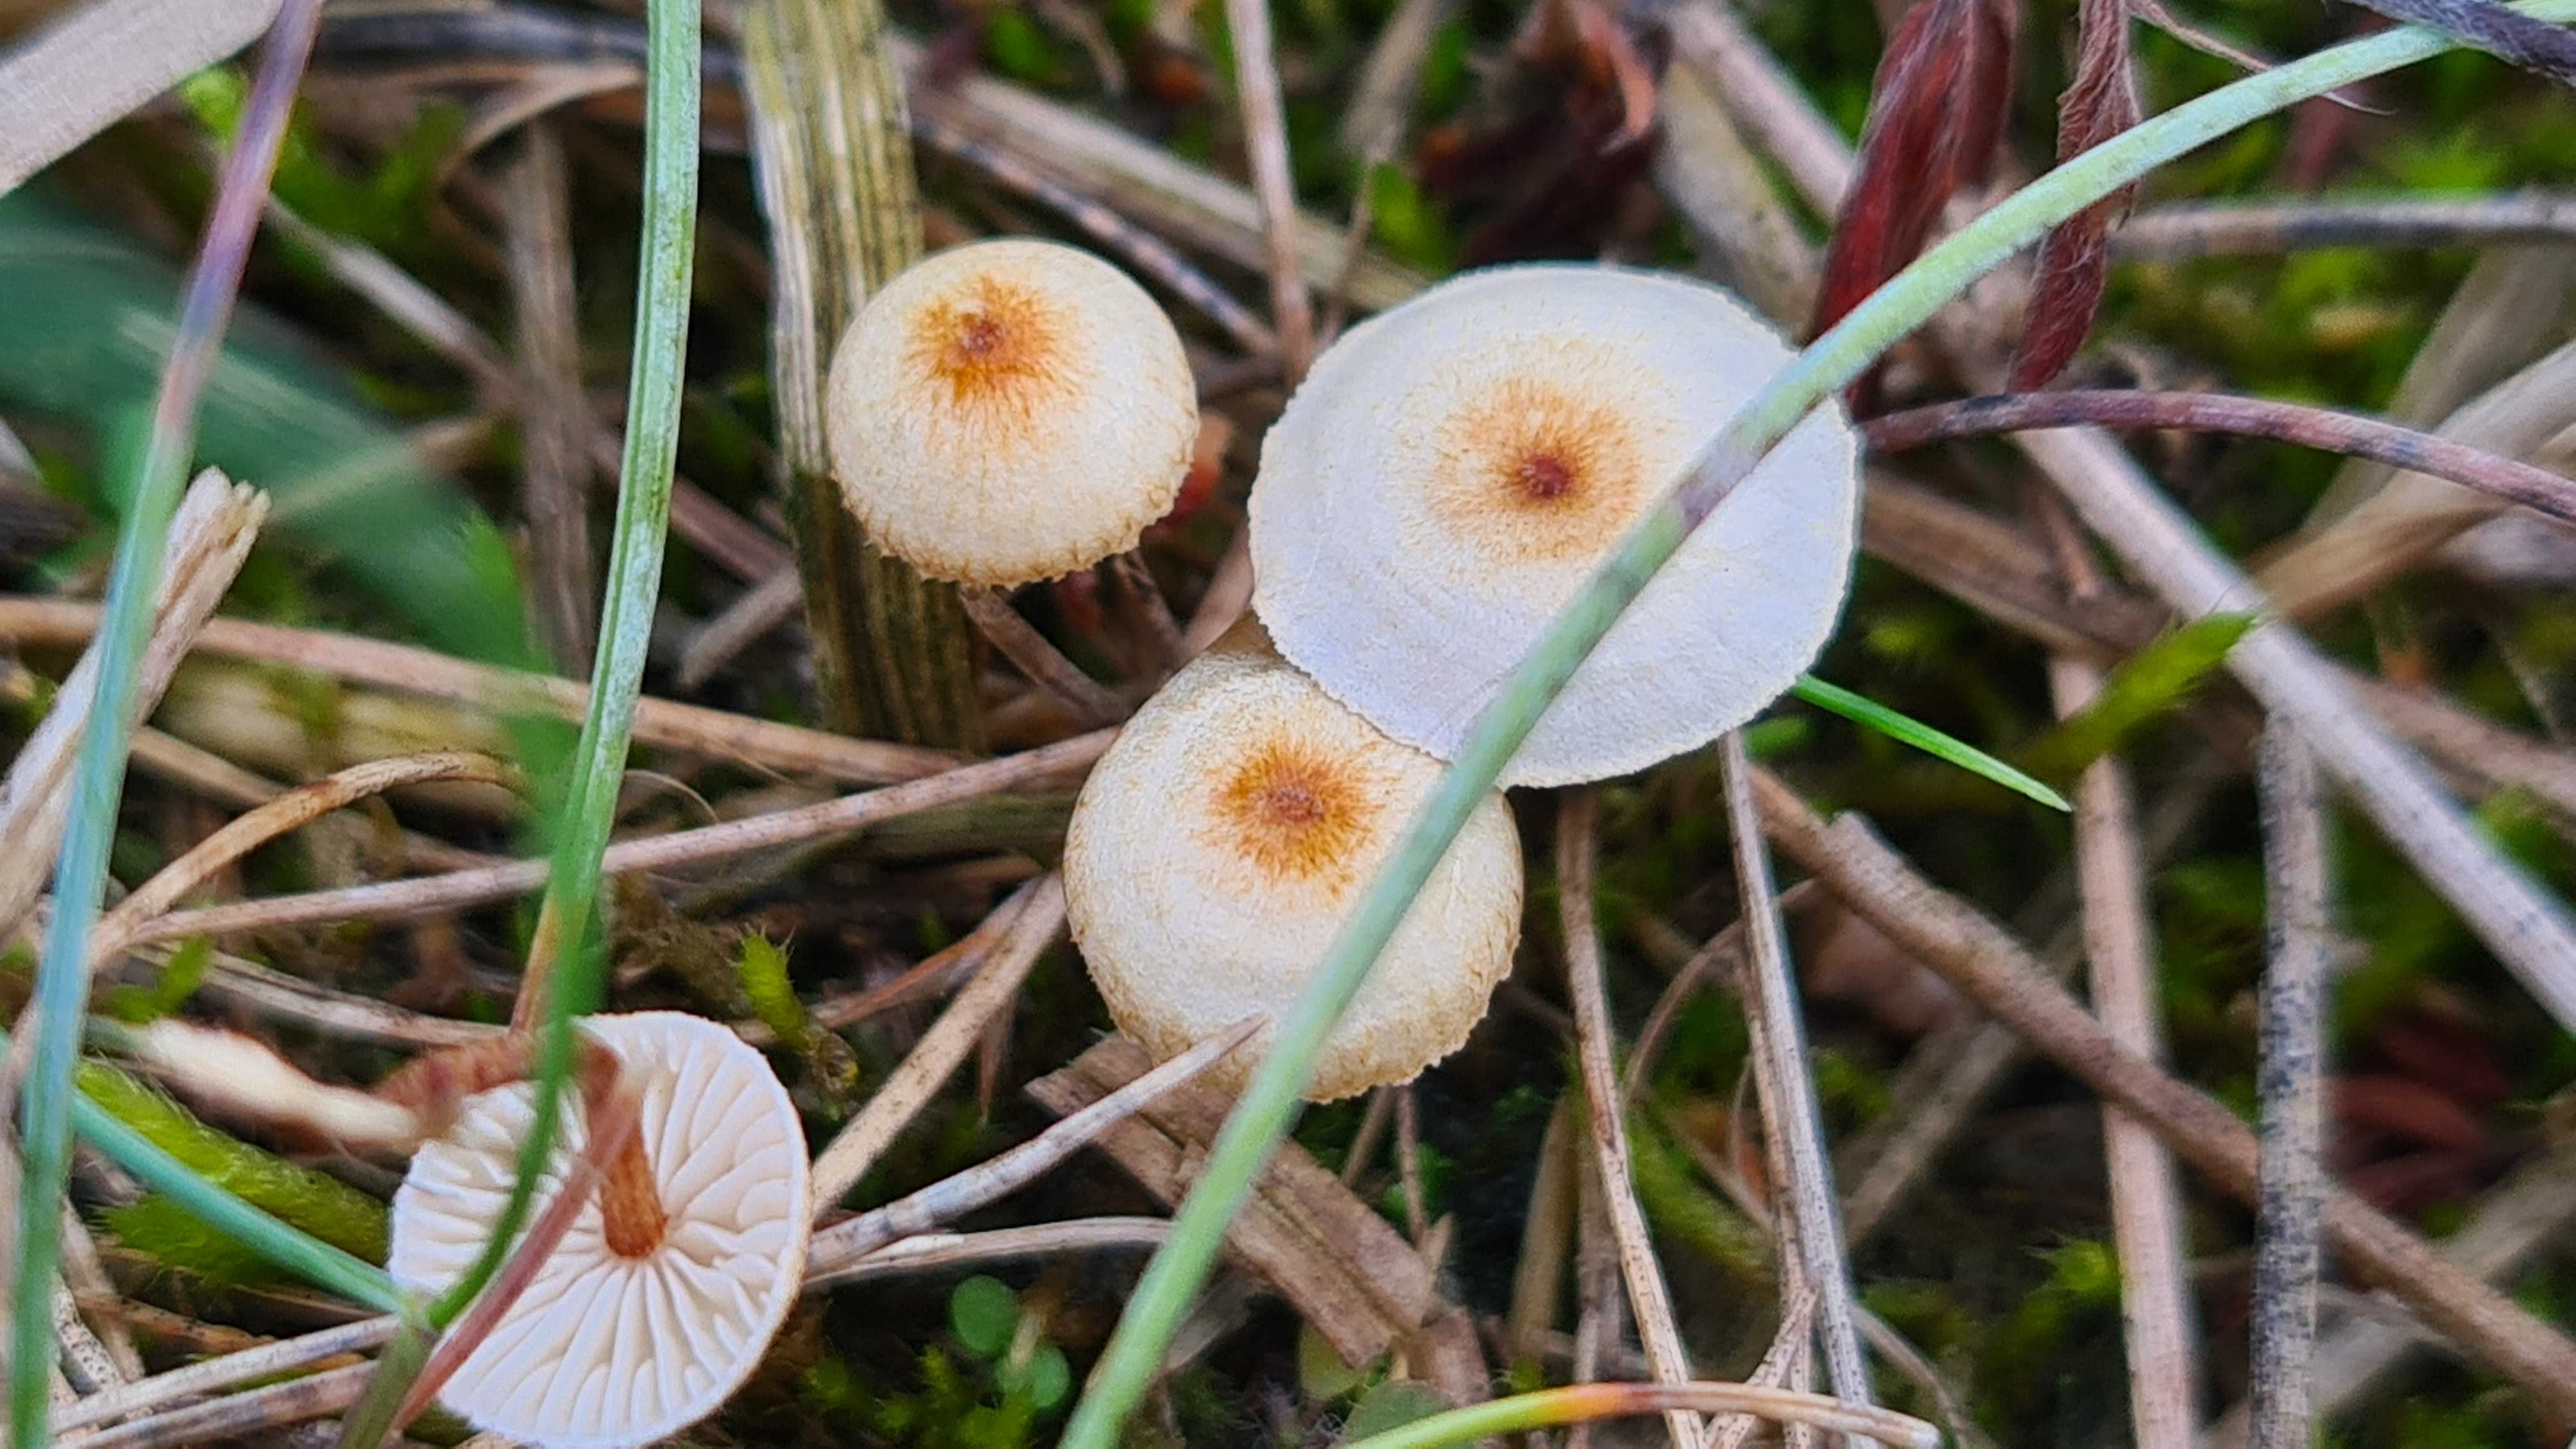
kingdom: Fungi
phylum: Basidiomycota
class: Agaricomycetes
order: Agaricales
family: Marasmiaceae
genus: Crinipellis
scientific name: Crinipellis scabella
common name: børstefod
